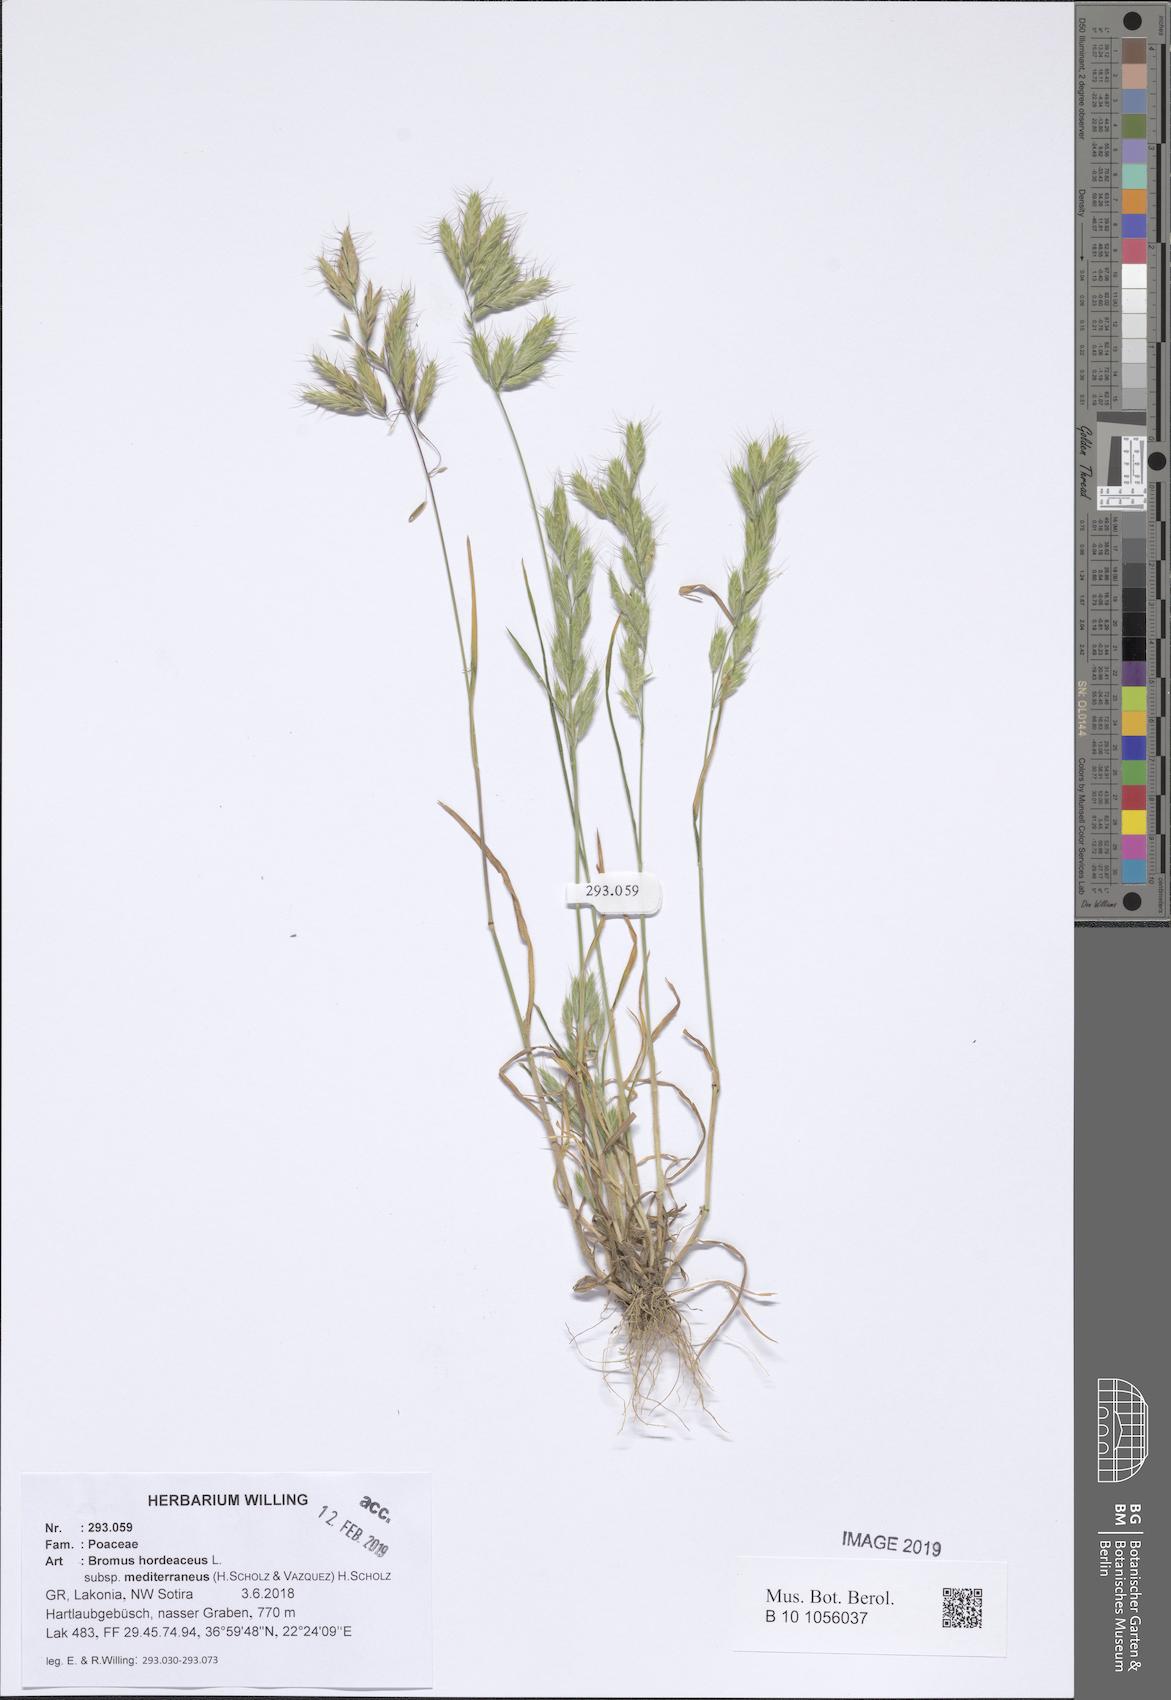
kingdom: Plantae
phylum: Tracheophyta
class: Liliopsida
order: Poales
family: Poaceae
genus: Bromus
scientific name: Bromus hordeaceus
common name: Soft brome
